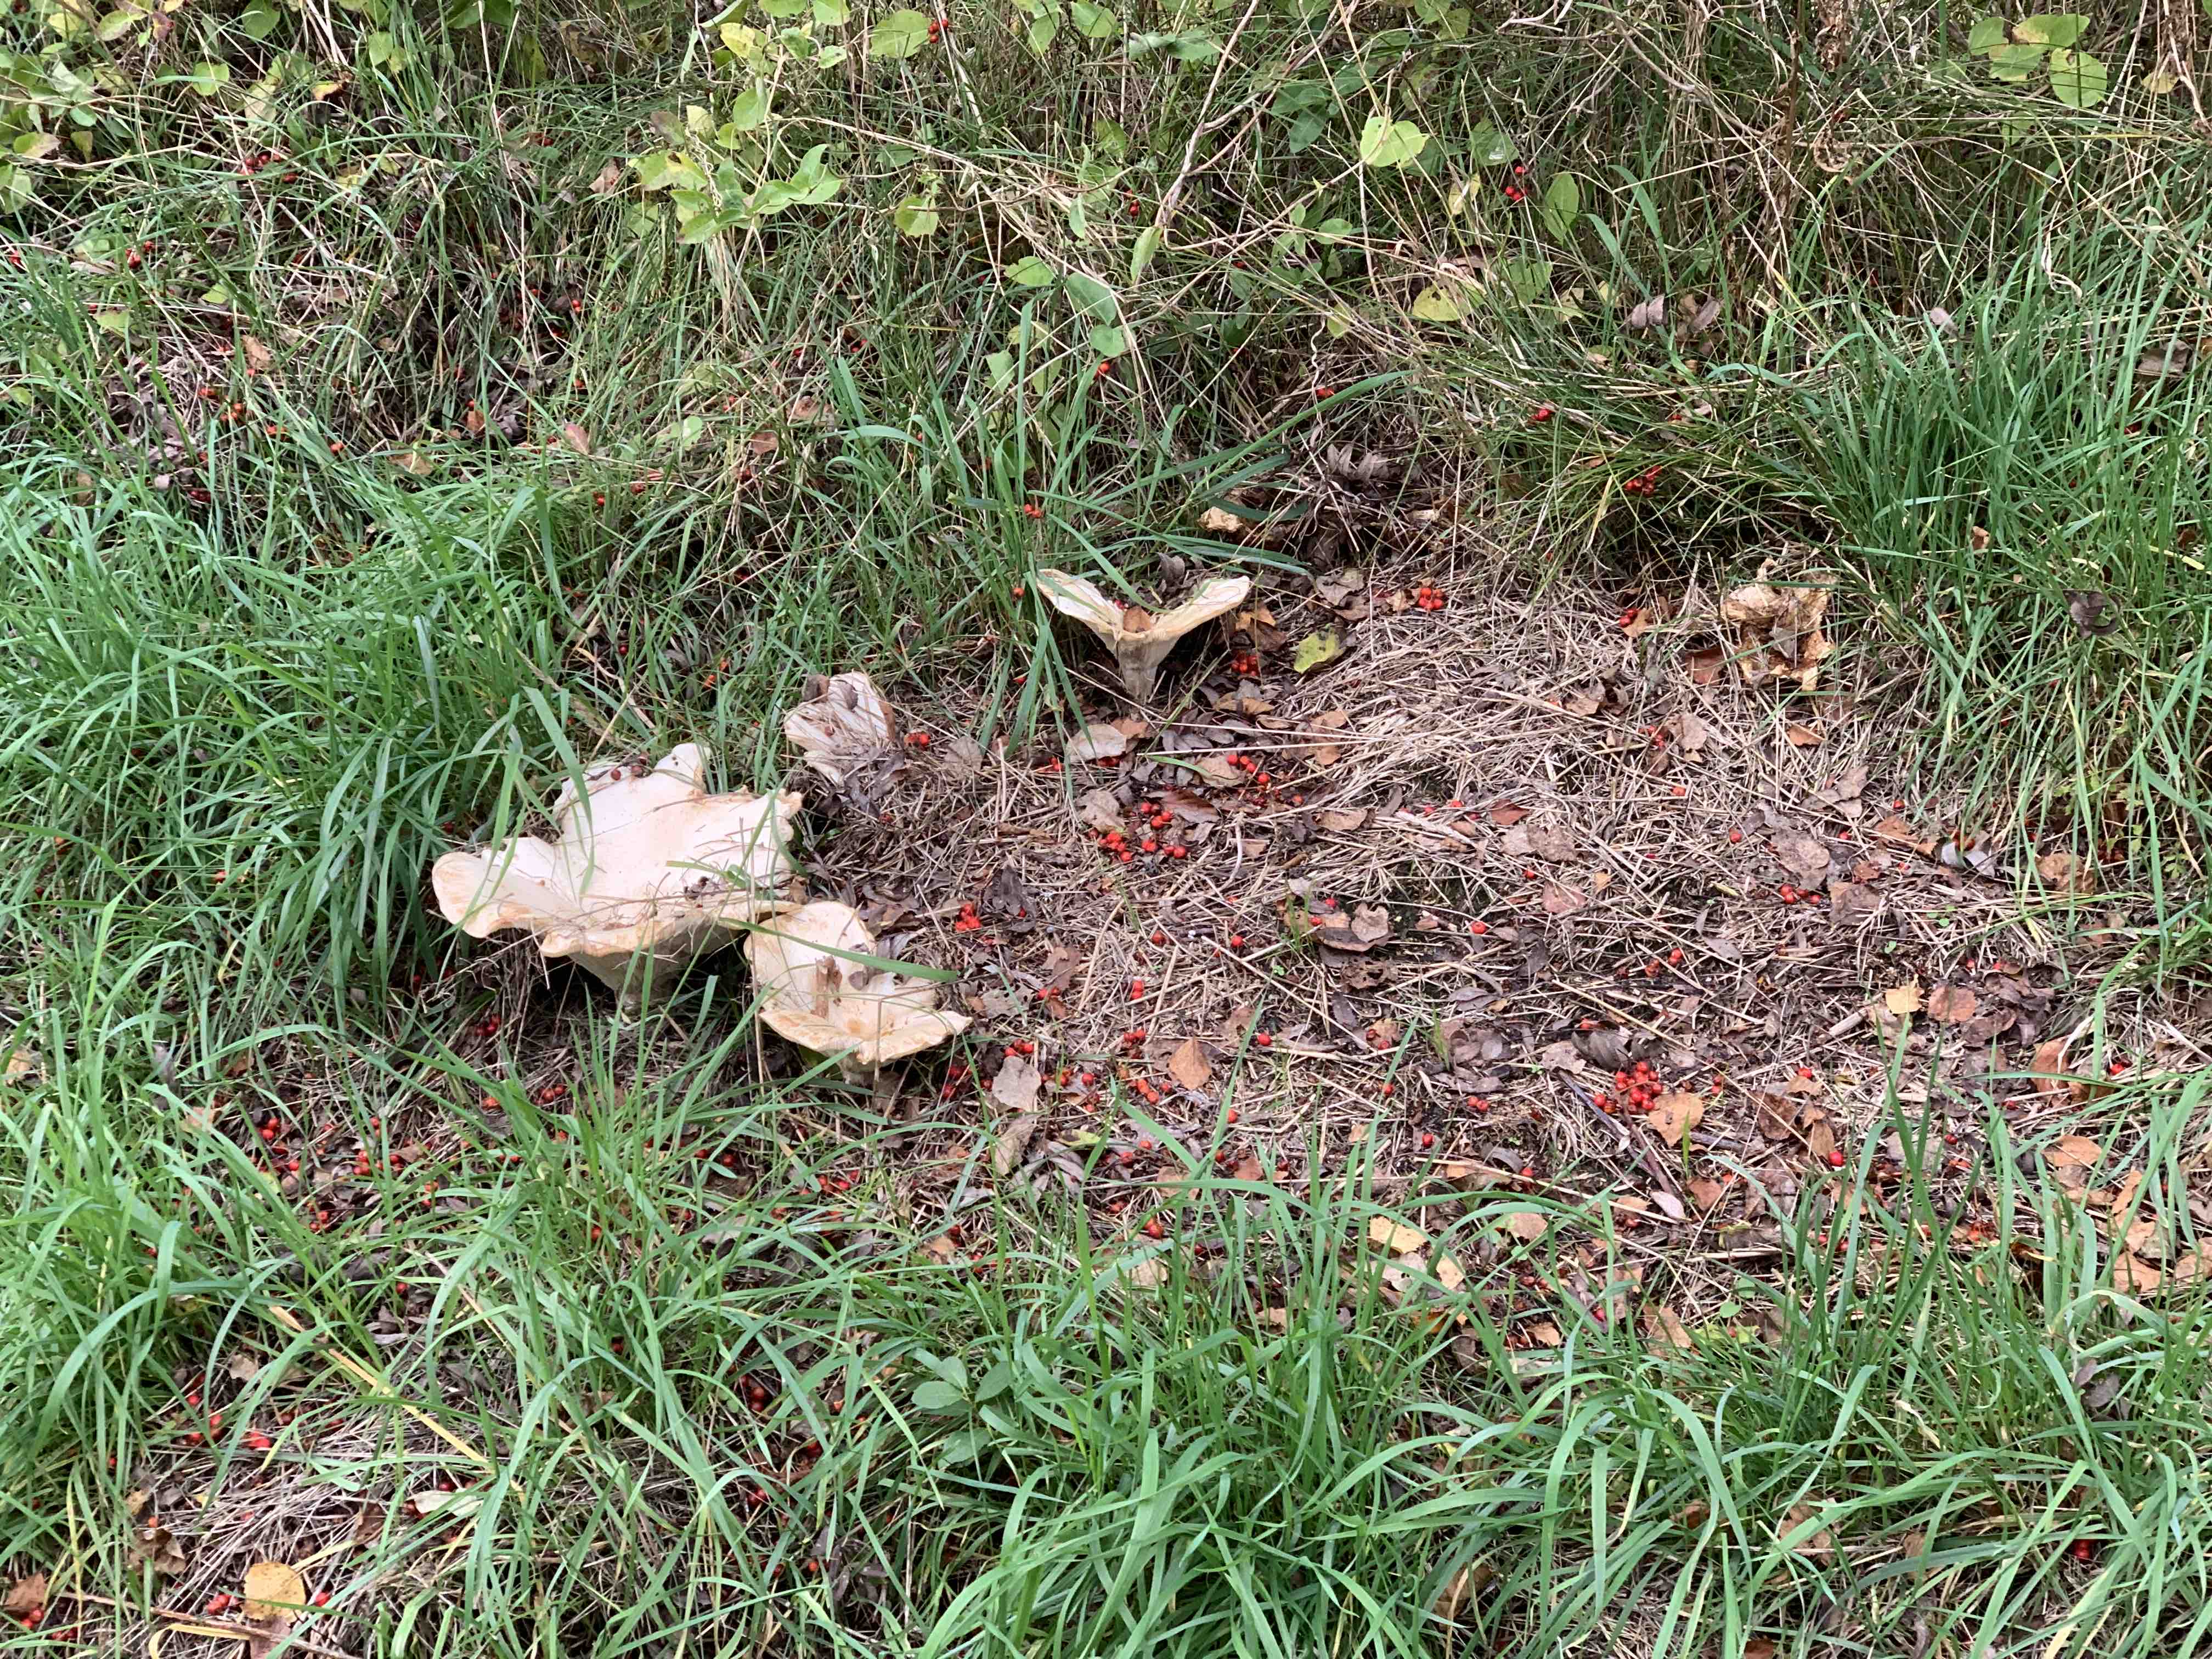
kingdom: Fungi
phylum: Basidiomycota
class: Agaricomycetes
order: Agaricales
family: Tricholomataceae
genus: Aspropaxillus
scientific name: Aspropaxillus giganteus
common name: kæmpe-tragtridderhat
